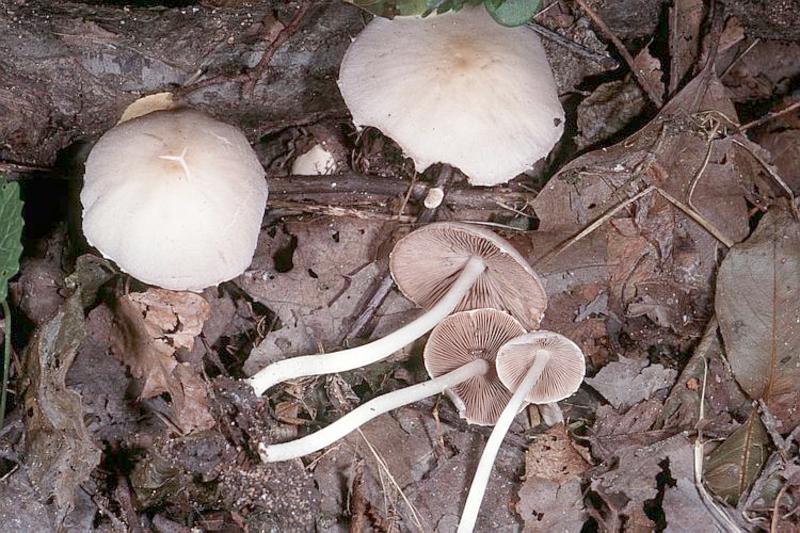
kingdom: Fungi
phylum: Basidiomycota
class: Agaricomycetes
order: Agaricales
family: Psathyrellaceae
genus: Candolleomyces
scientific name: Candolleomyces candolleanus
